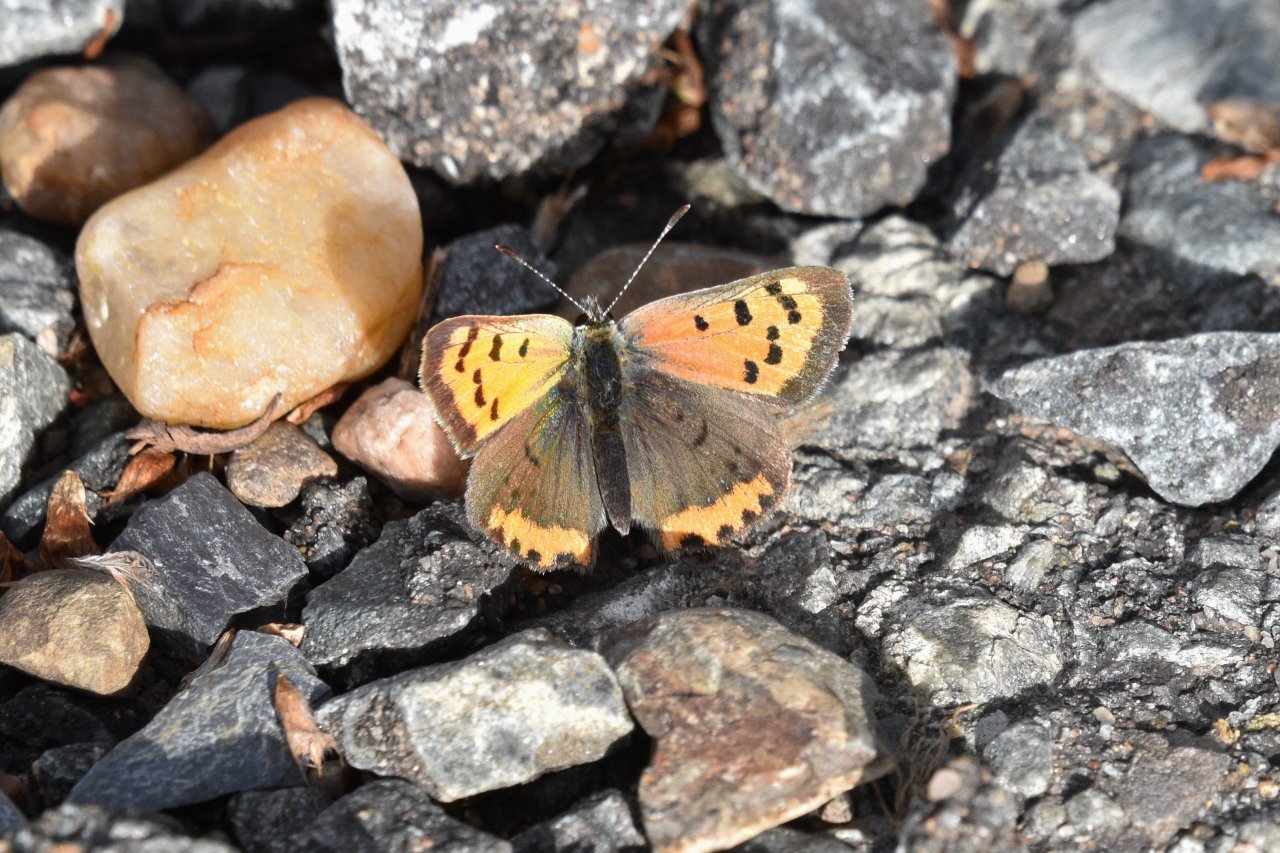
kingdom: Animalia
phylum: Arthropoda
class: Insecta
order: Lepidoptera
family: Lycaenidae
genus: Lycaena
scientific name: Lycaena phlaeas
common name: American Copper
